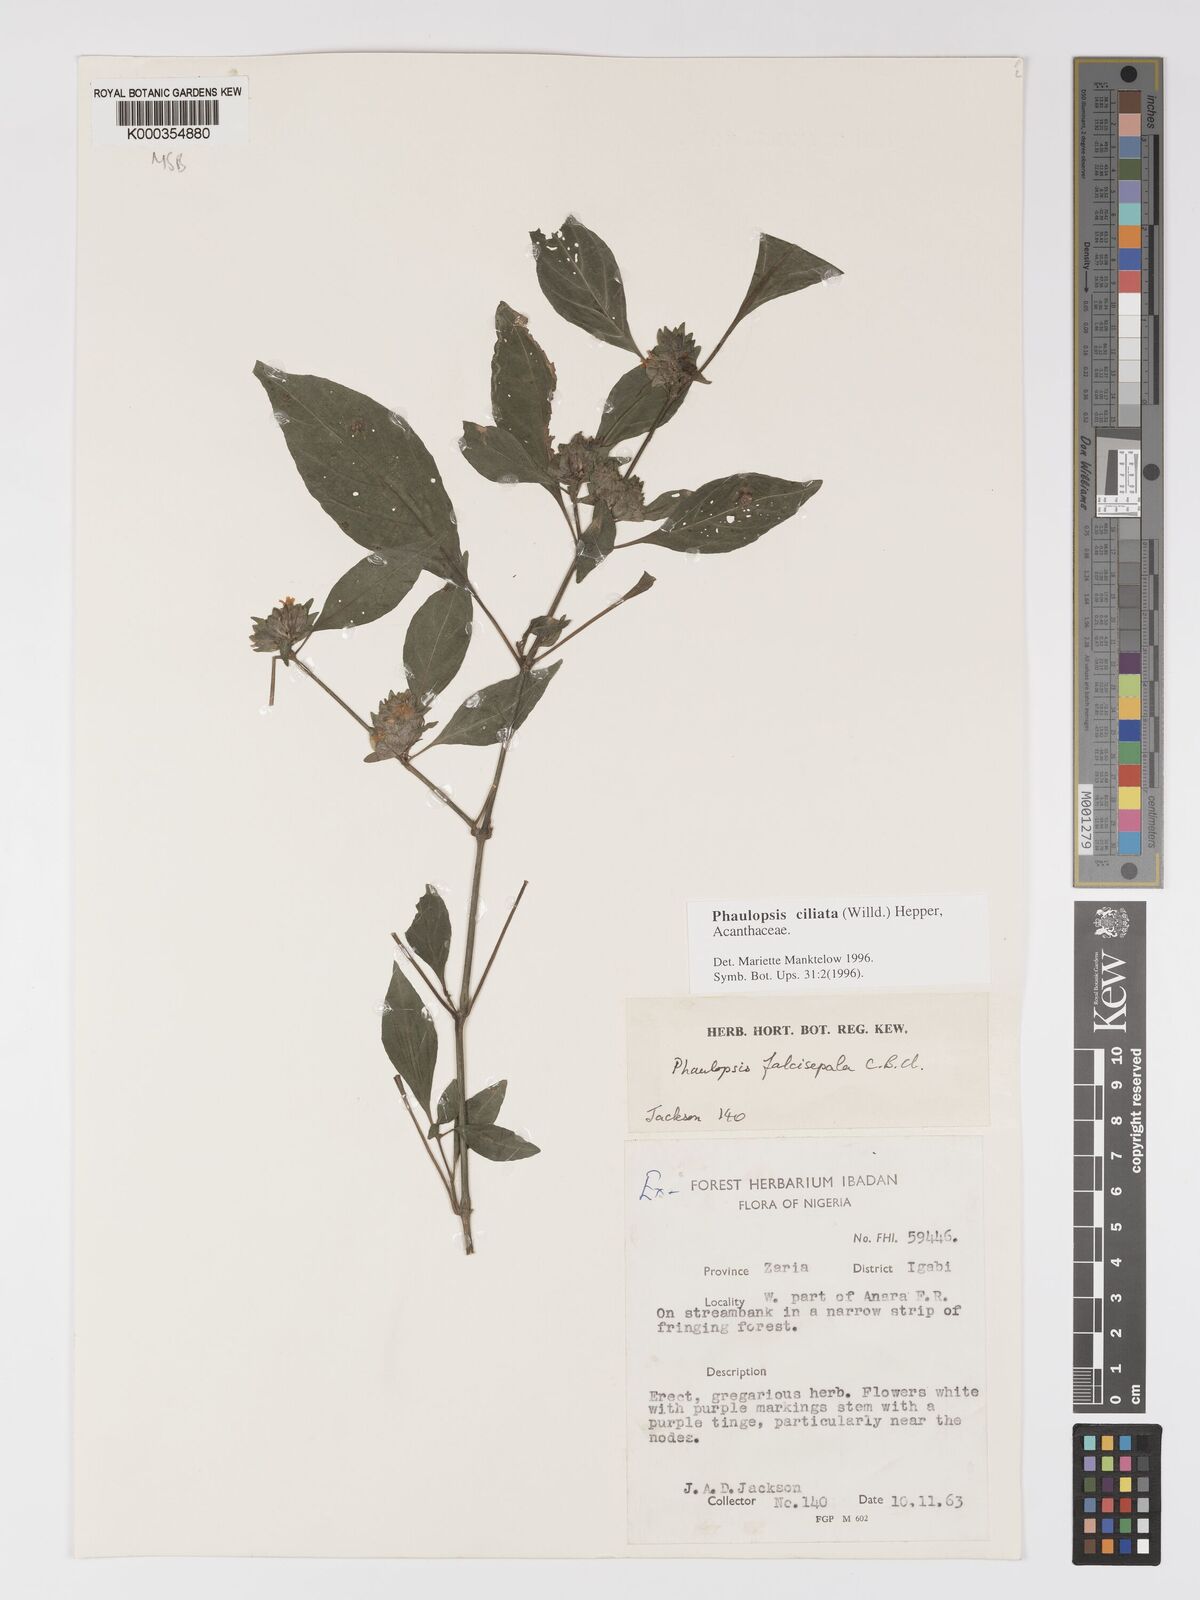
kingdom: Plantae
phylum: Tracheophyta
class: Magnoliopsida
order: Lamiales
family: Acanthaceae
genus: Phaulopsis
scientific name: Phaulopsis ciliata
